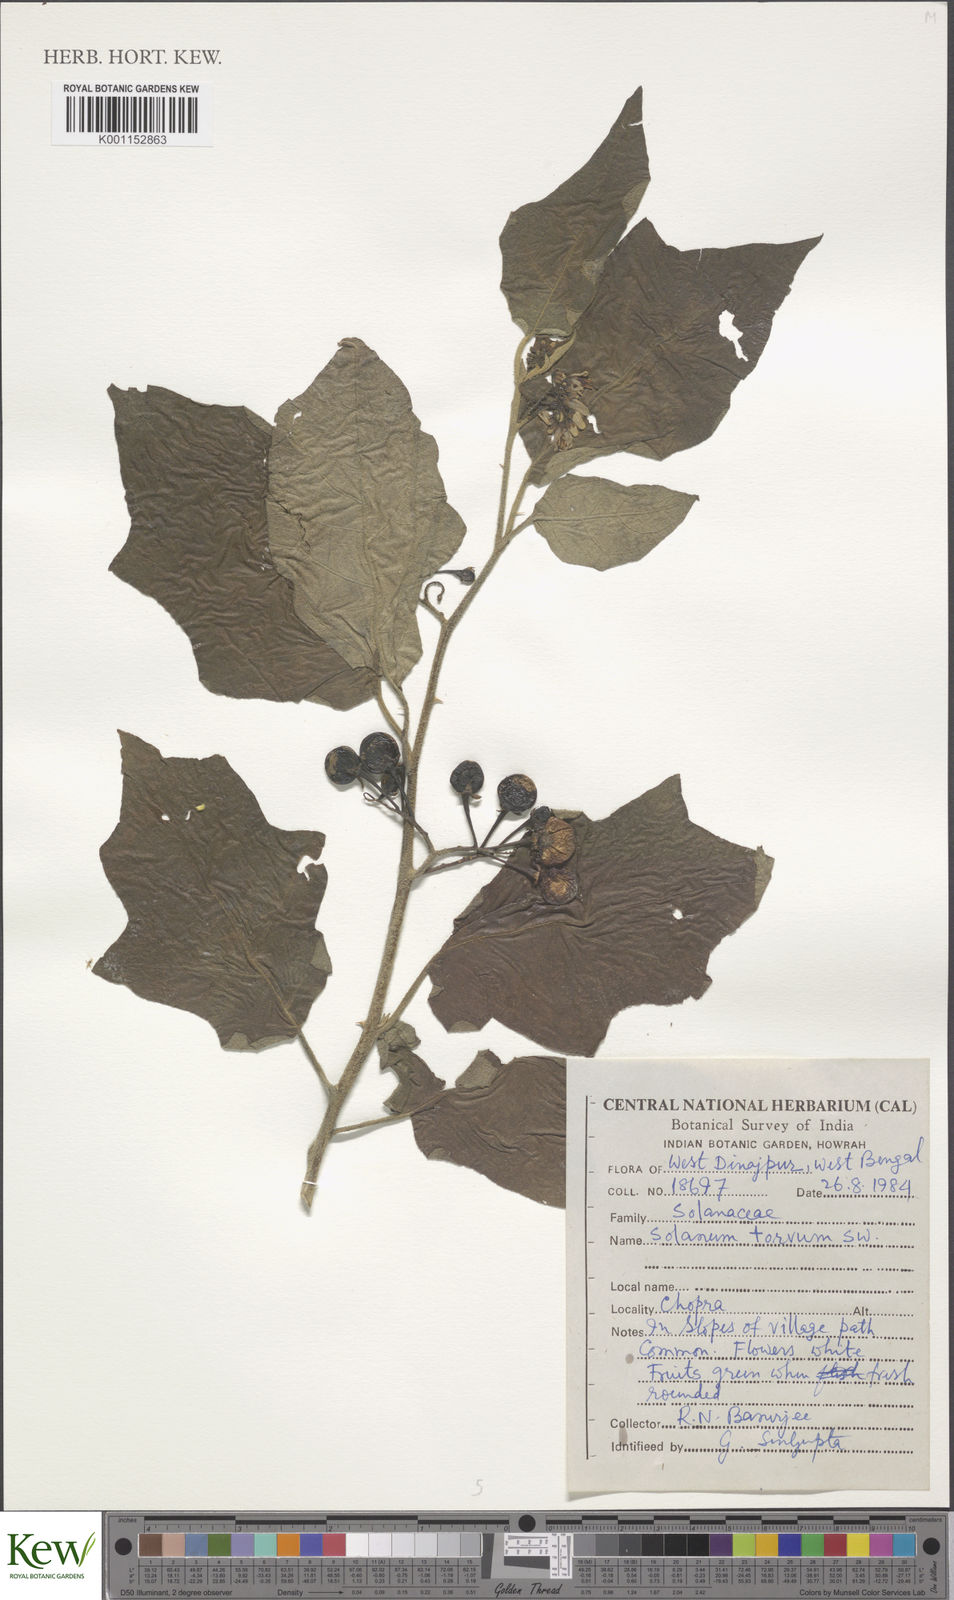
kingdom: Plantae
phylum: Tracheophyta
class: Magnoliopsida
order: Solanales
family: Solanaceae
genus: Solanum
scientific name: Solanum torvum
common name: Turkey berry
